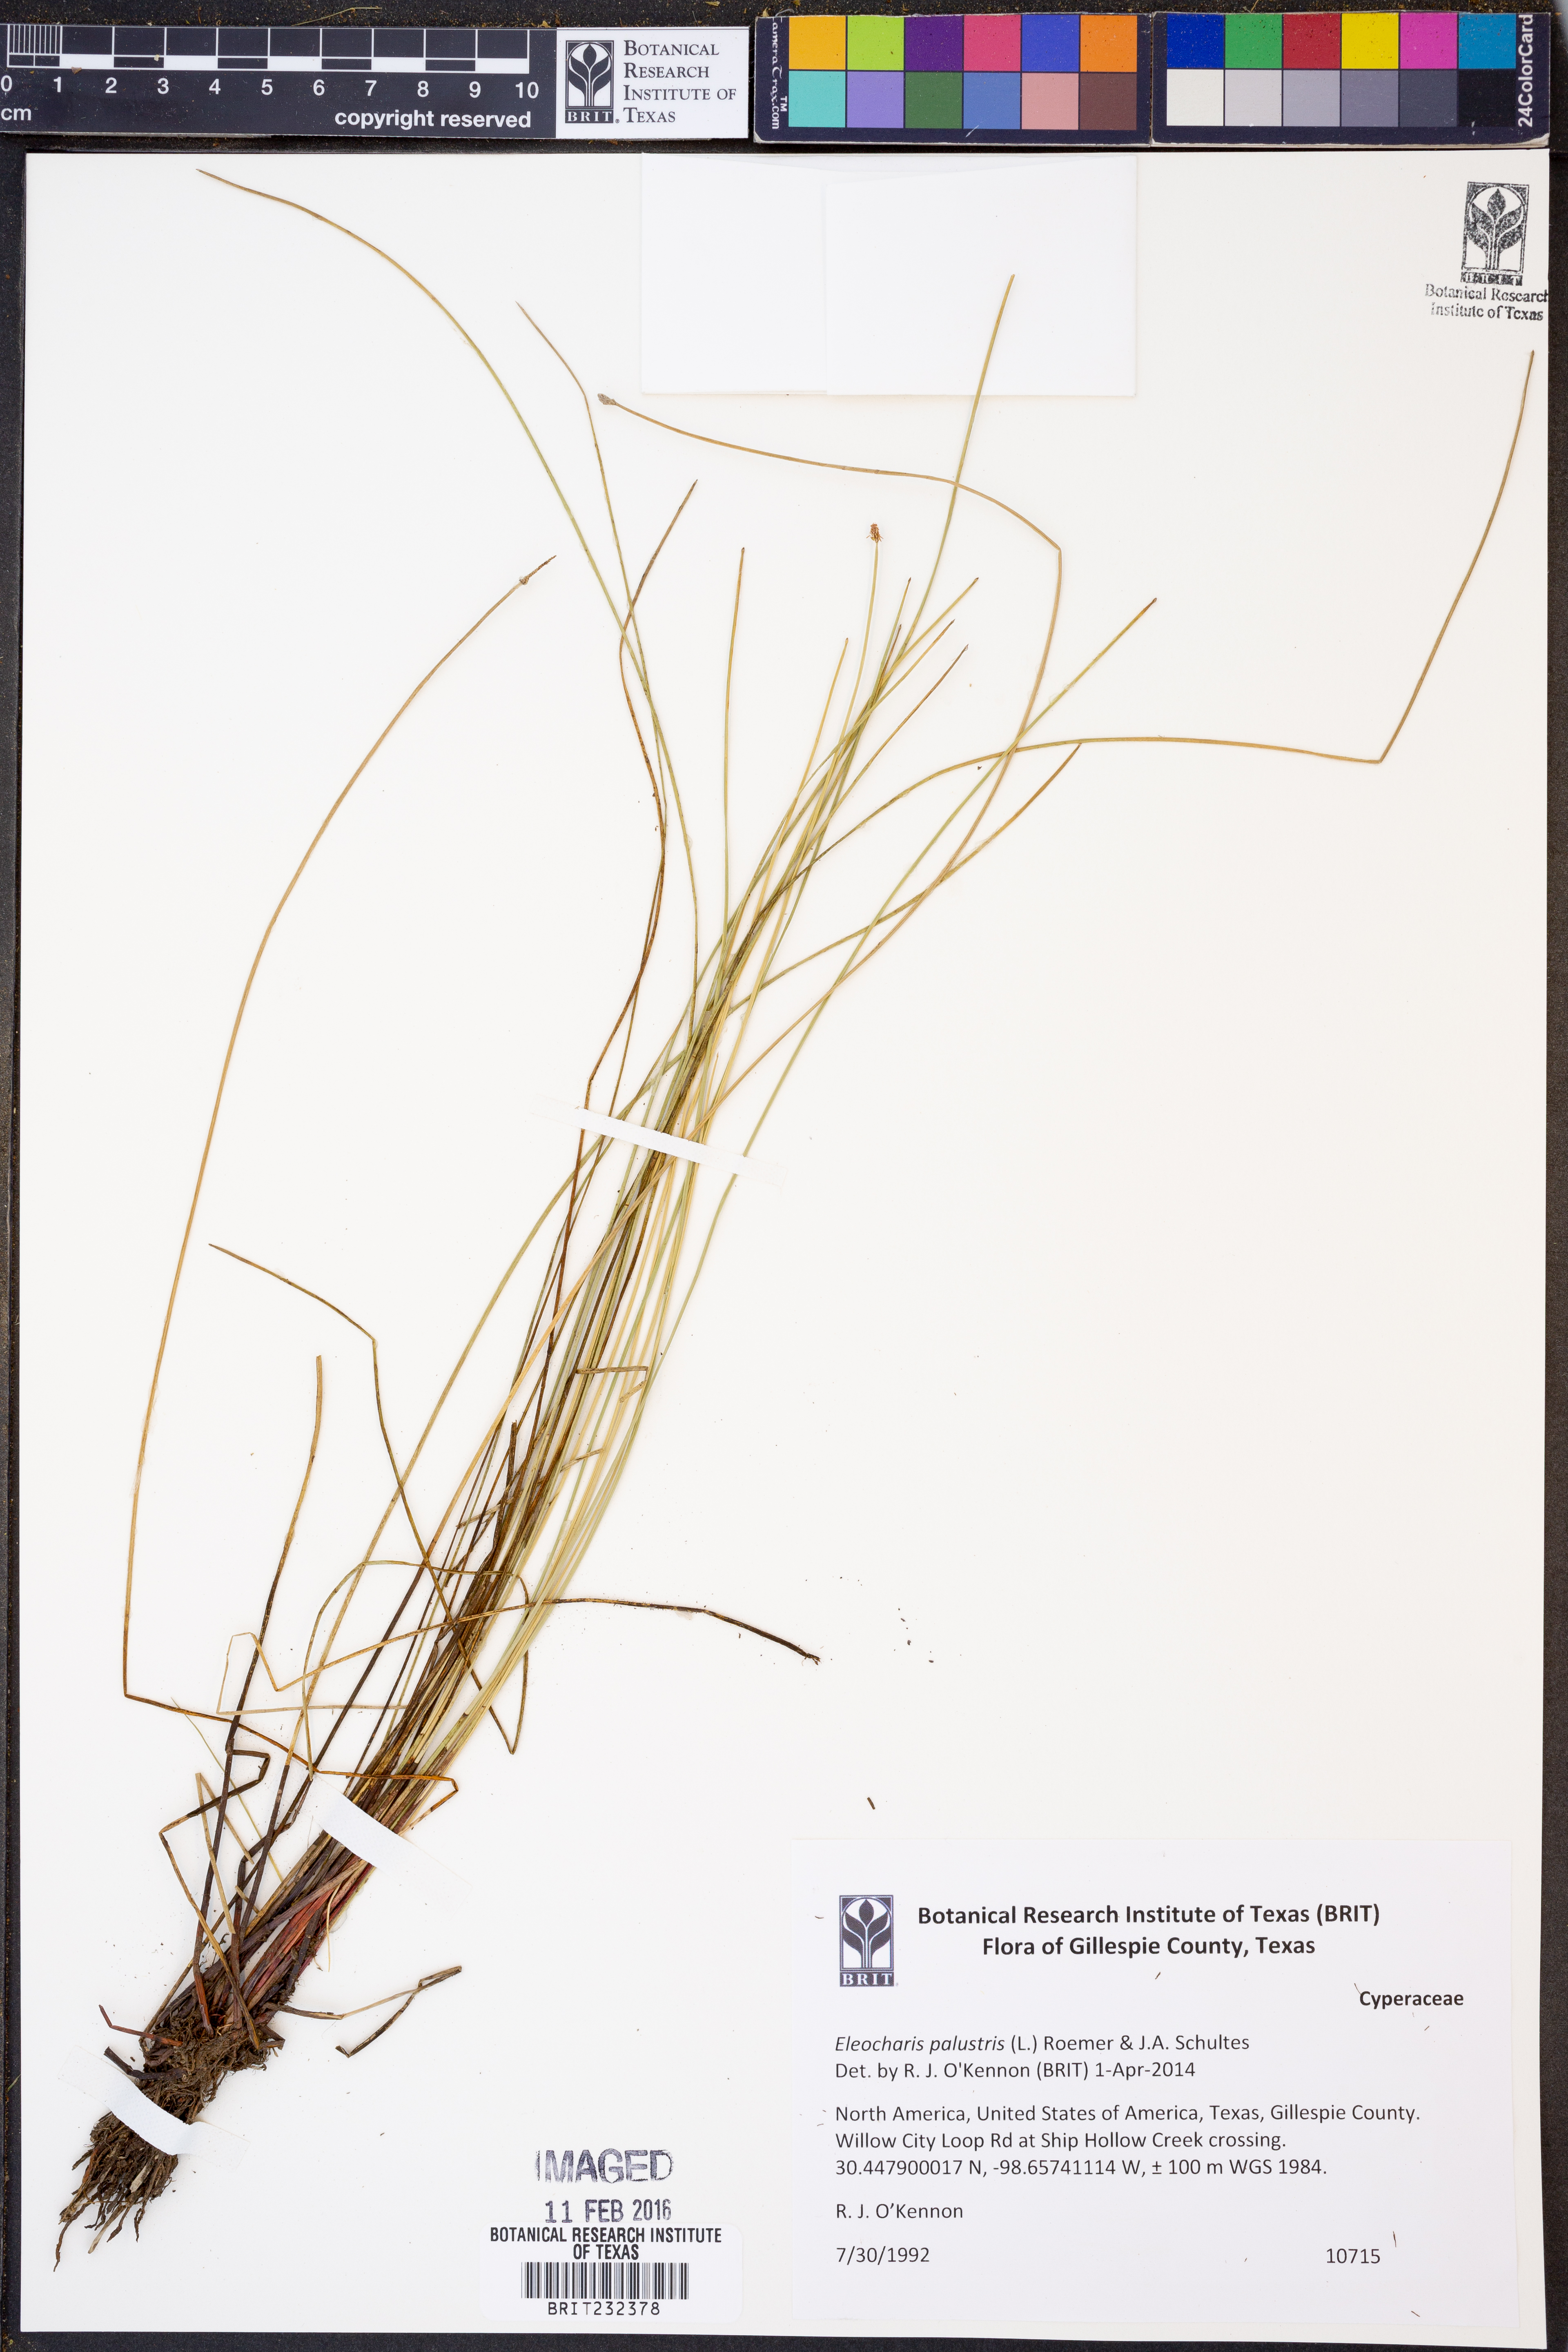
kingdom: Plantae
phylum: Tracheophyta
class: Liliopsida
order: Poales
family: Cyperaceae
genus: Eleocharis
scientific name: Eleocharis palustris
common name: Common spike-rush
